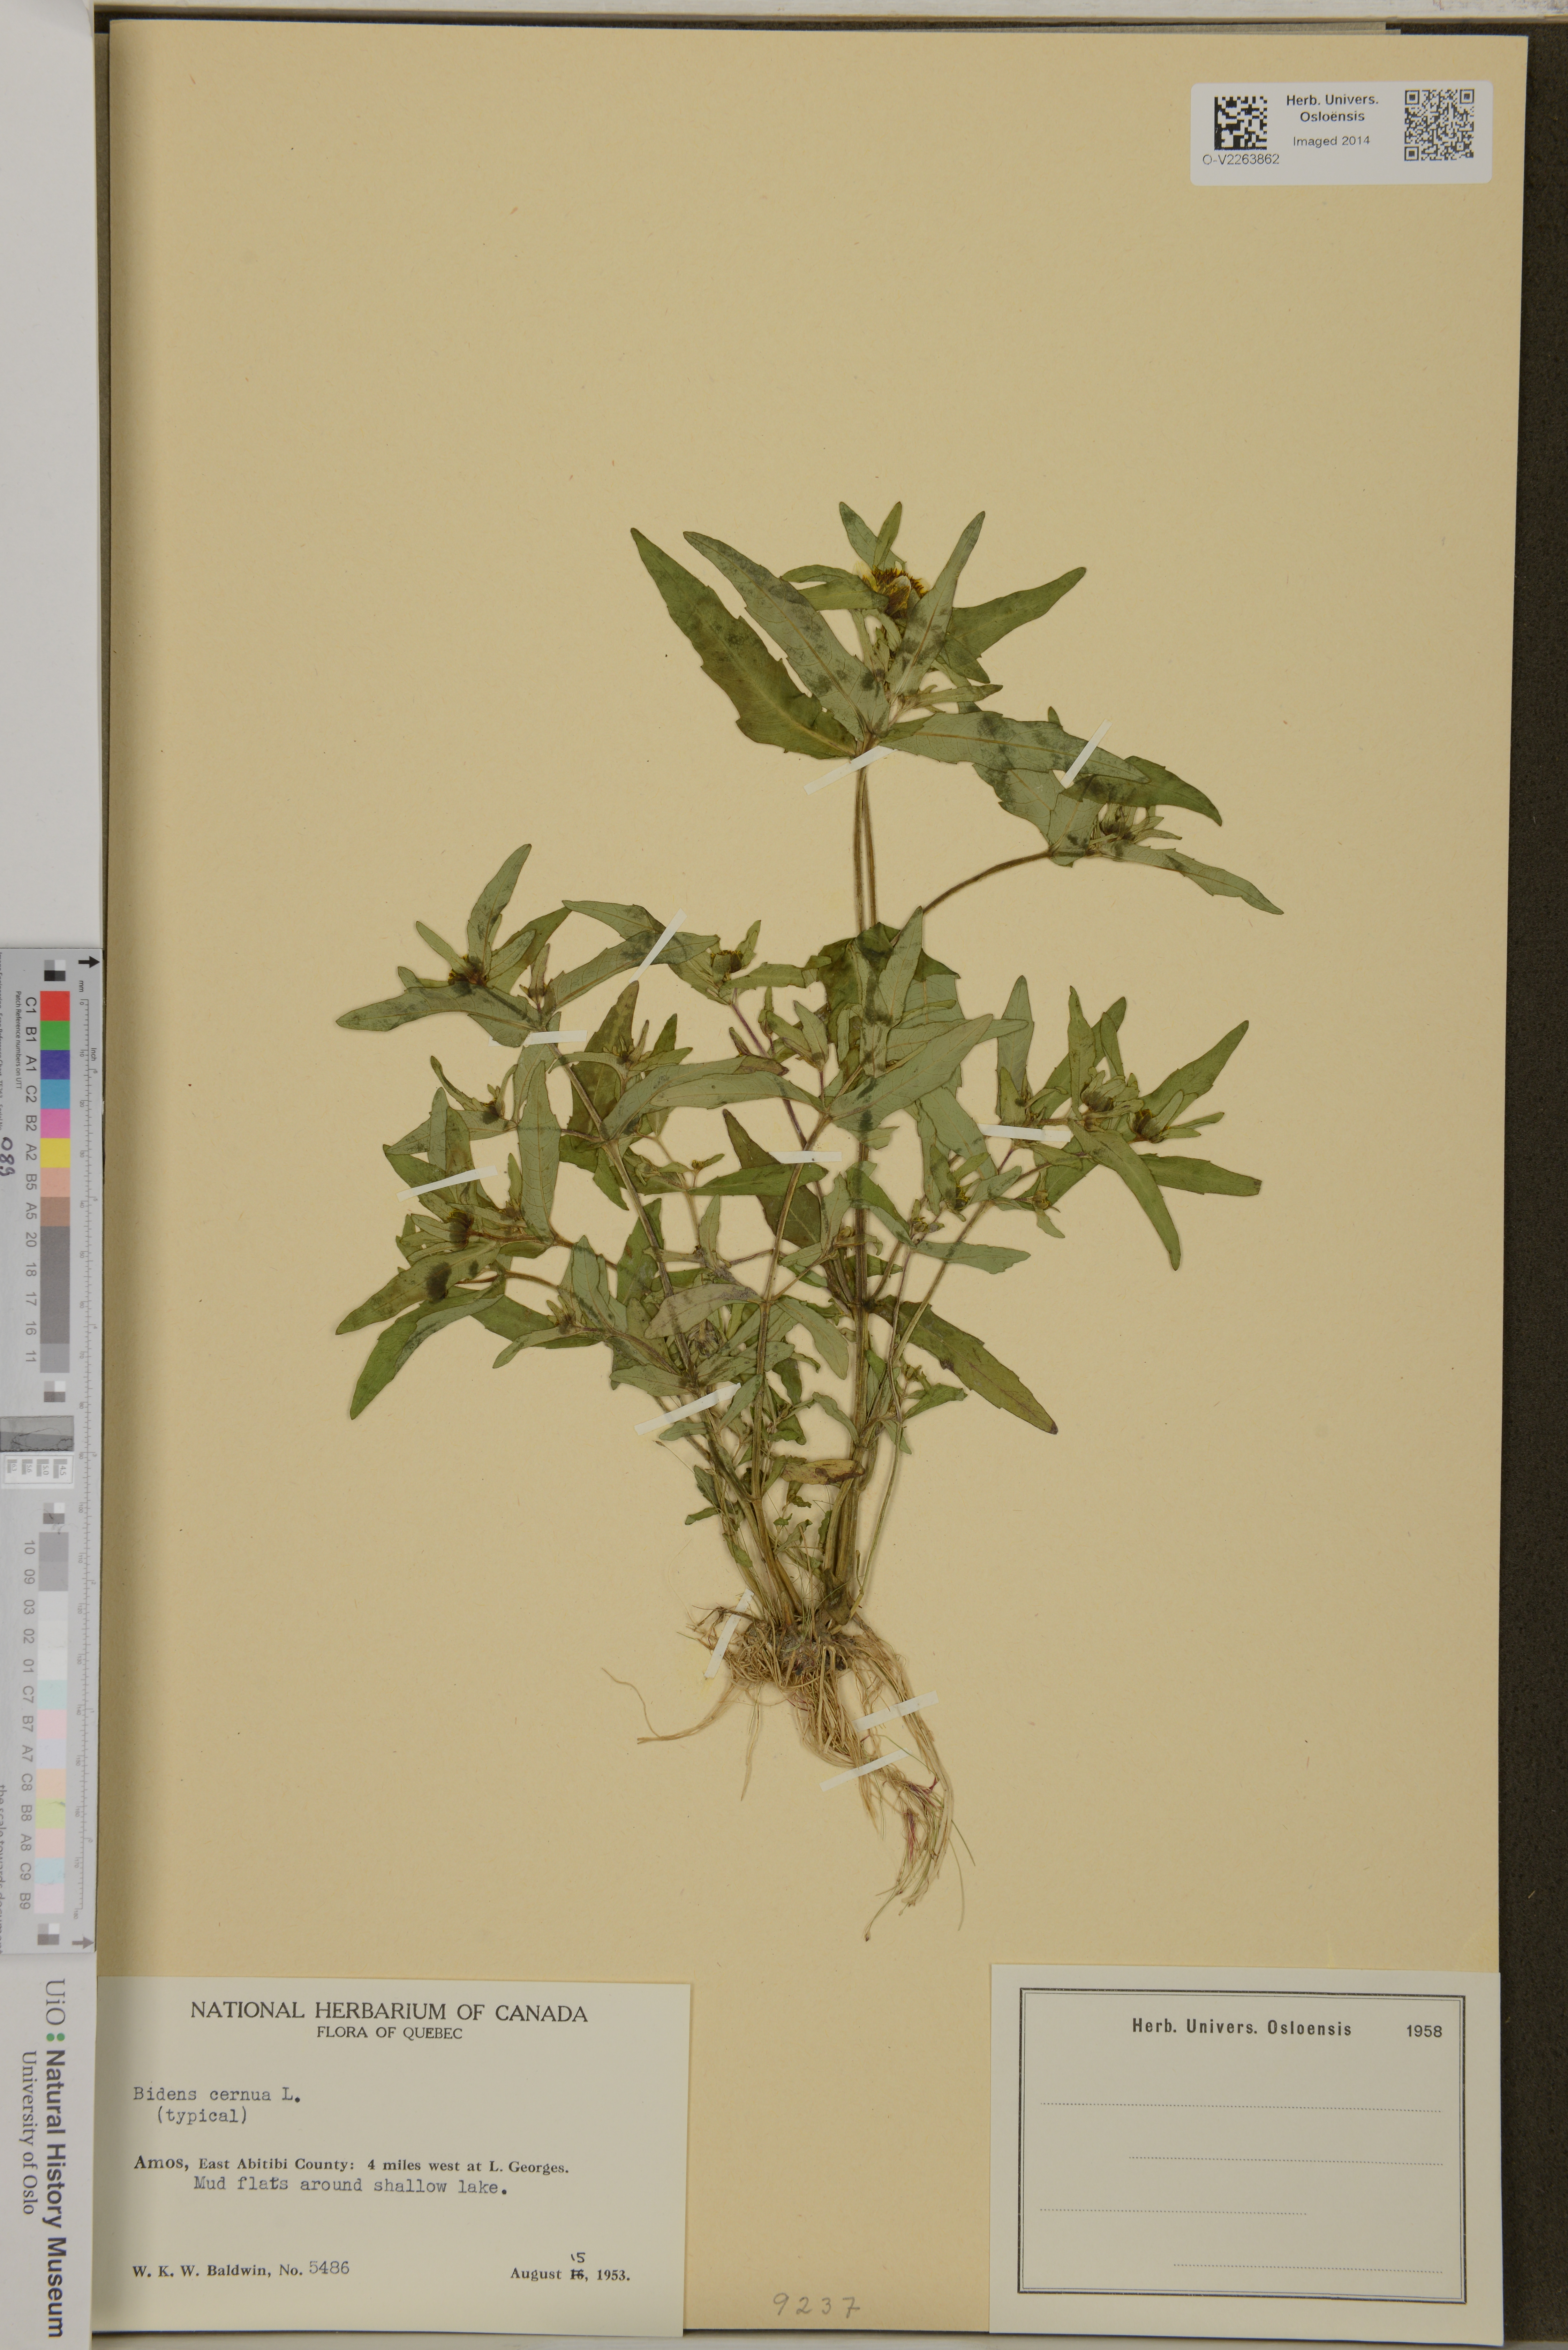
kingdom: Plantae
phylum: Tracheophyta
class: Magnoliopsida
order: Asterales
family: Asteraceae
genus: Bidens
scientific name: Bidens cernua
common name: Nodding bur-marigold
